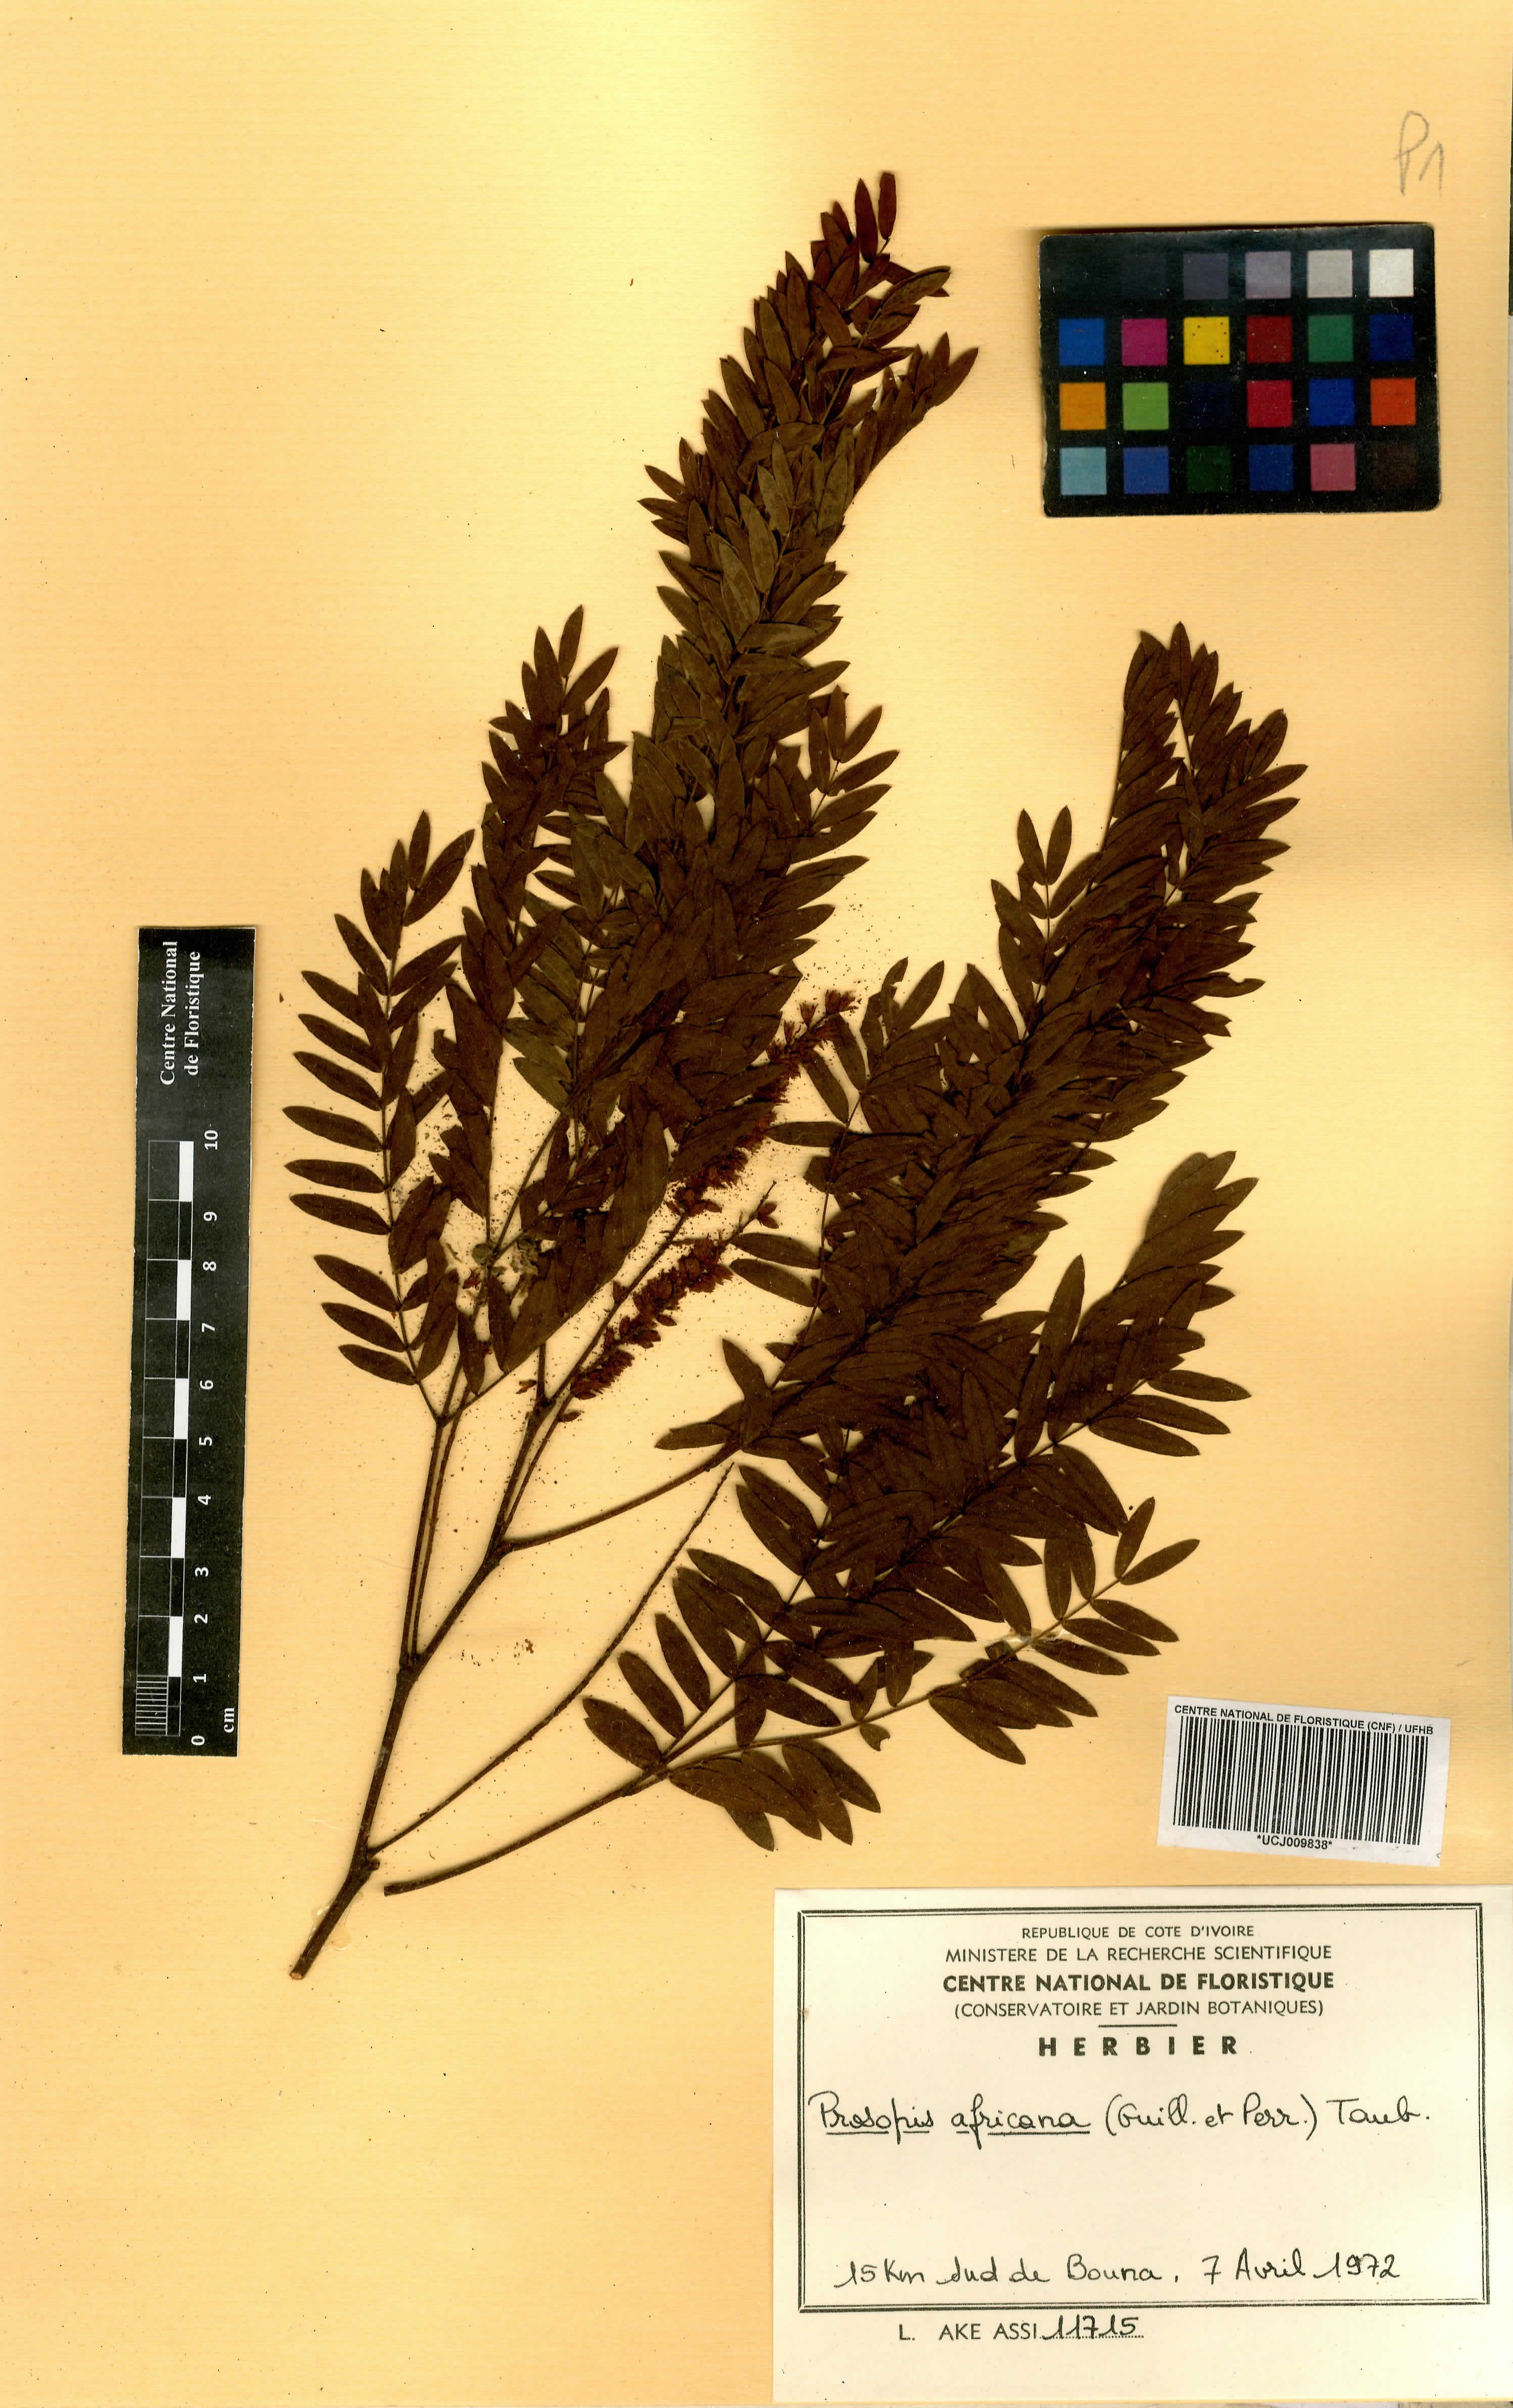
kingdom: Plantae
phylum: Tracheophyta
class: Magnoliopsida
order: Fabales
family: Fabaceae
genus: Prosopis
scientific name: Prosopis africana
